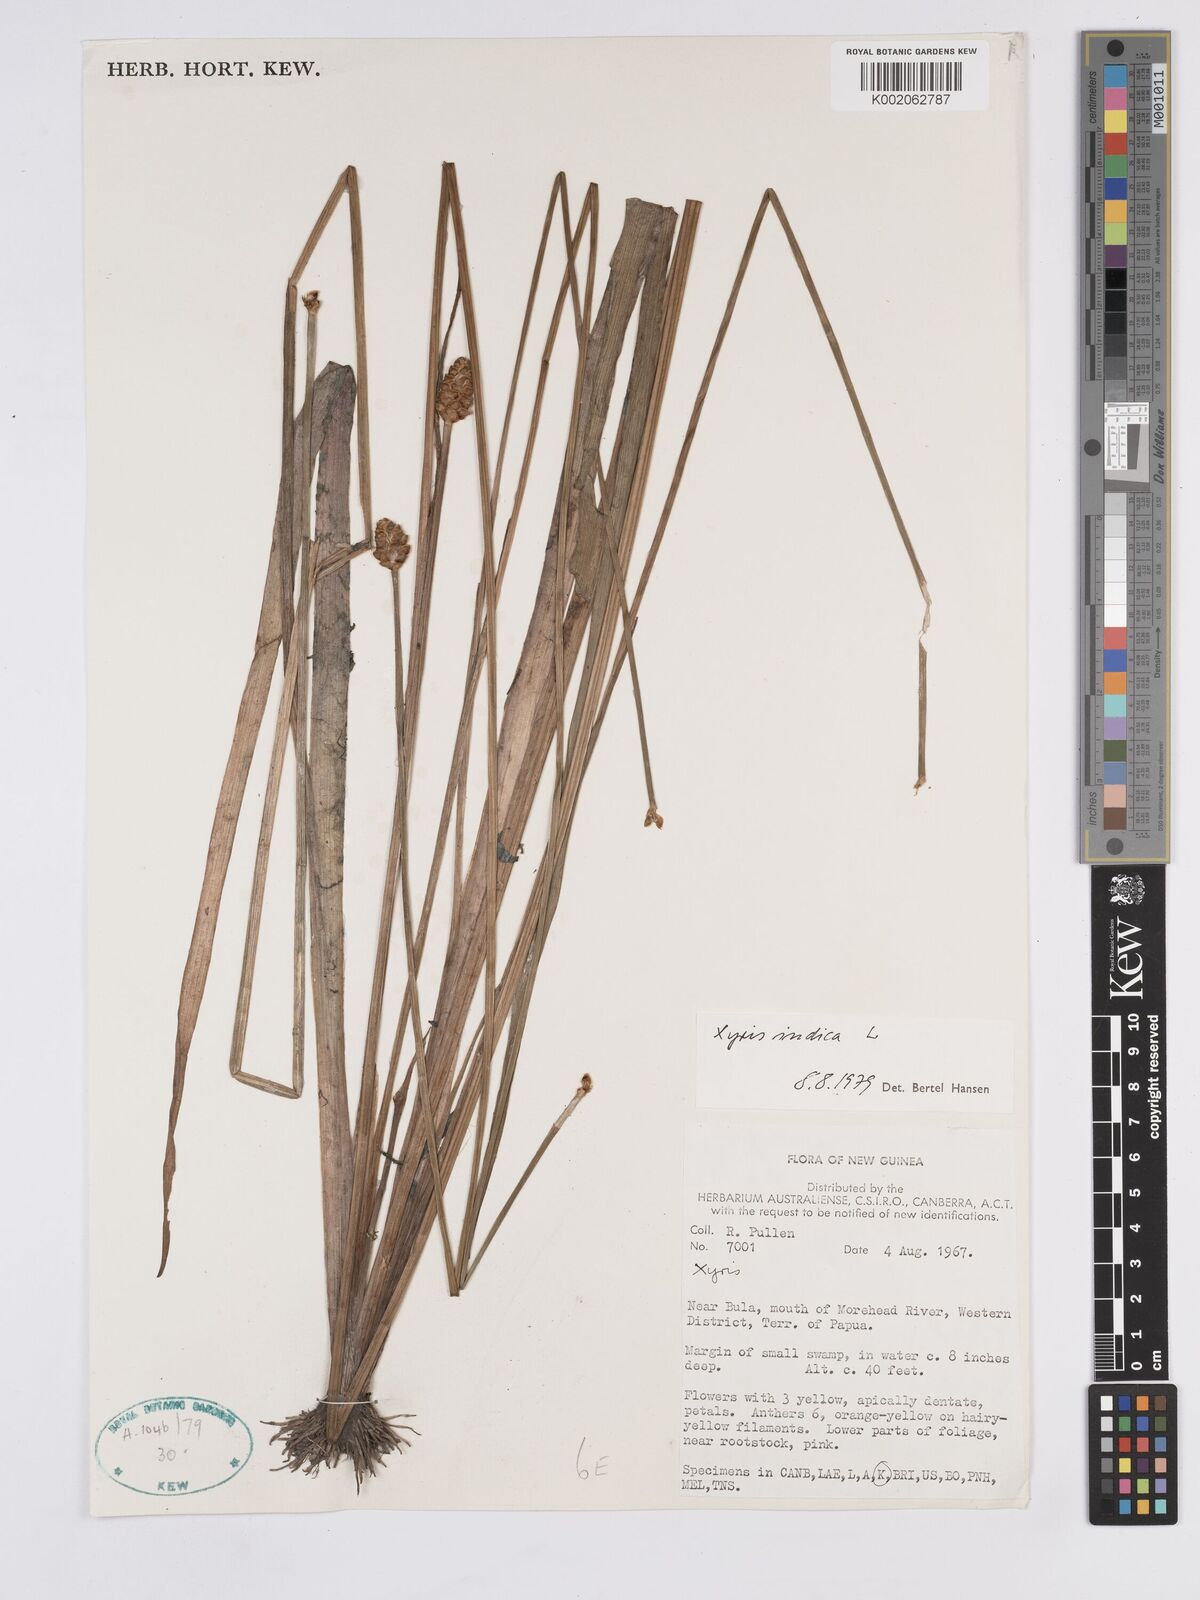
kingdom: Plantae
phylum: Tracheophyta
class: Liliopsida
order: Poales
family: Xyridaceae
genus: Xyris
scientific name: Xyris indica
